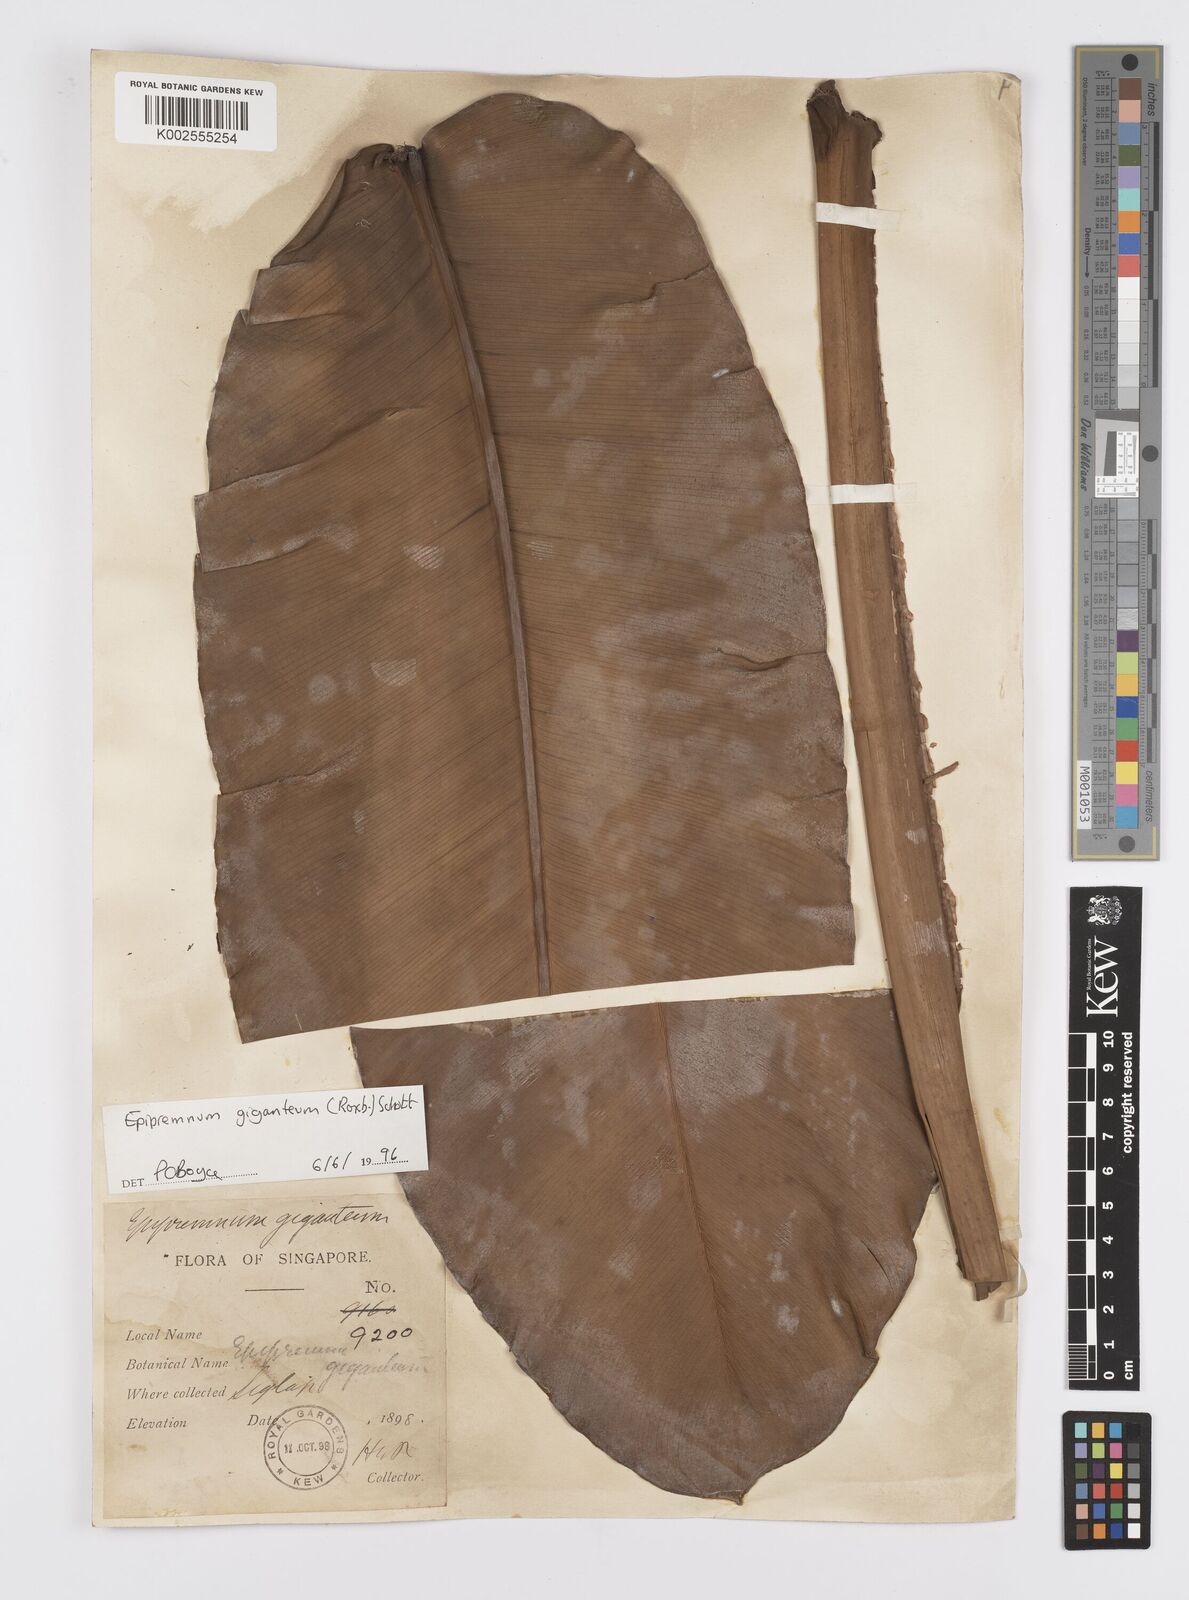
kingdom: Plantae
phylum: Tracheophyta
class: Liliopsida
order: Alismatales
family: Araceae
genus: Epipremnum
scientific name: Epipremnum giganteum
